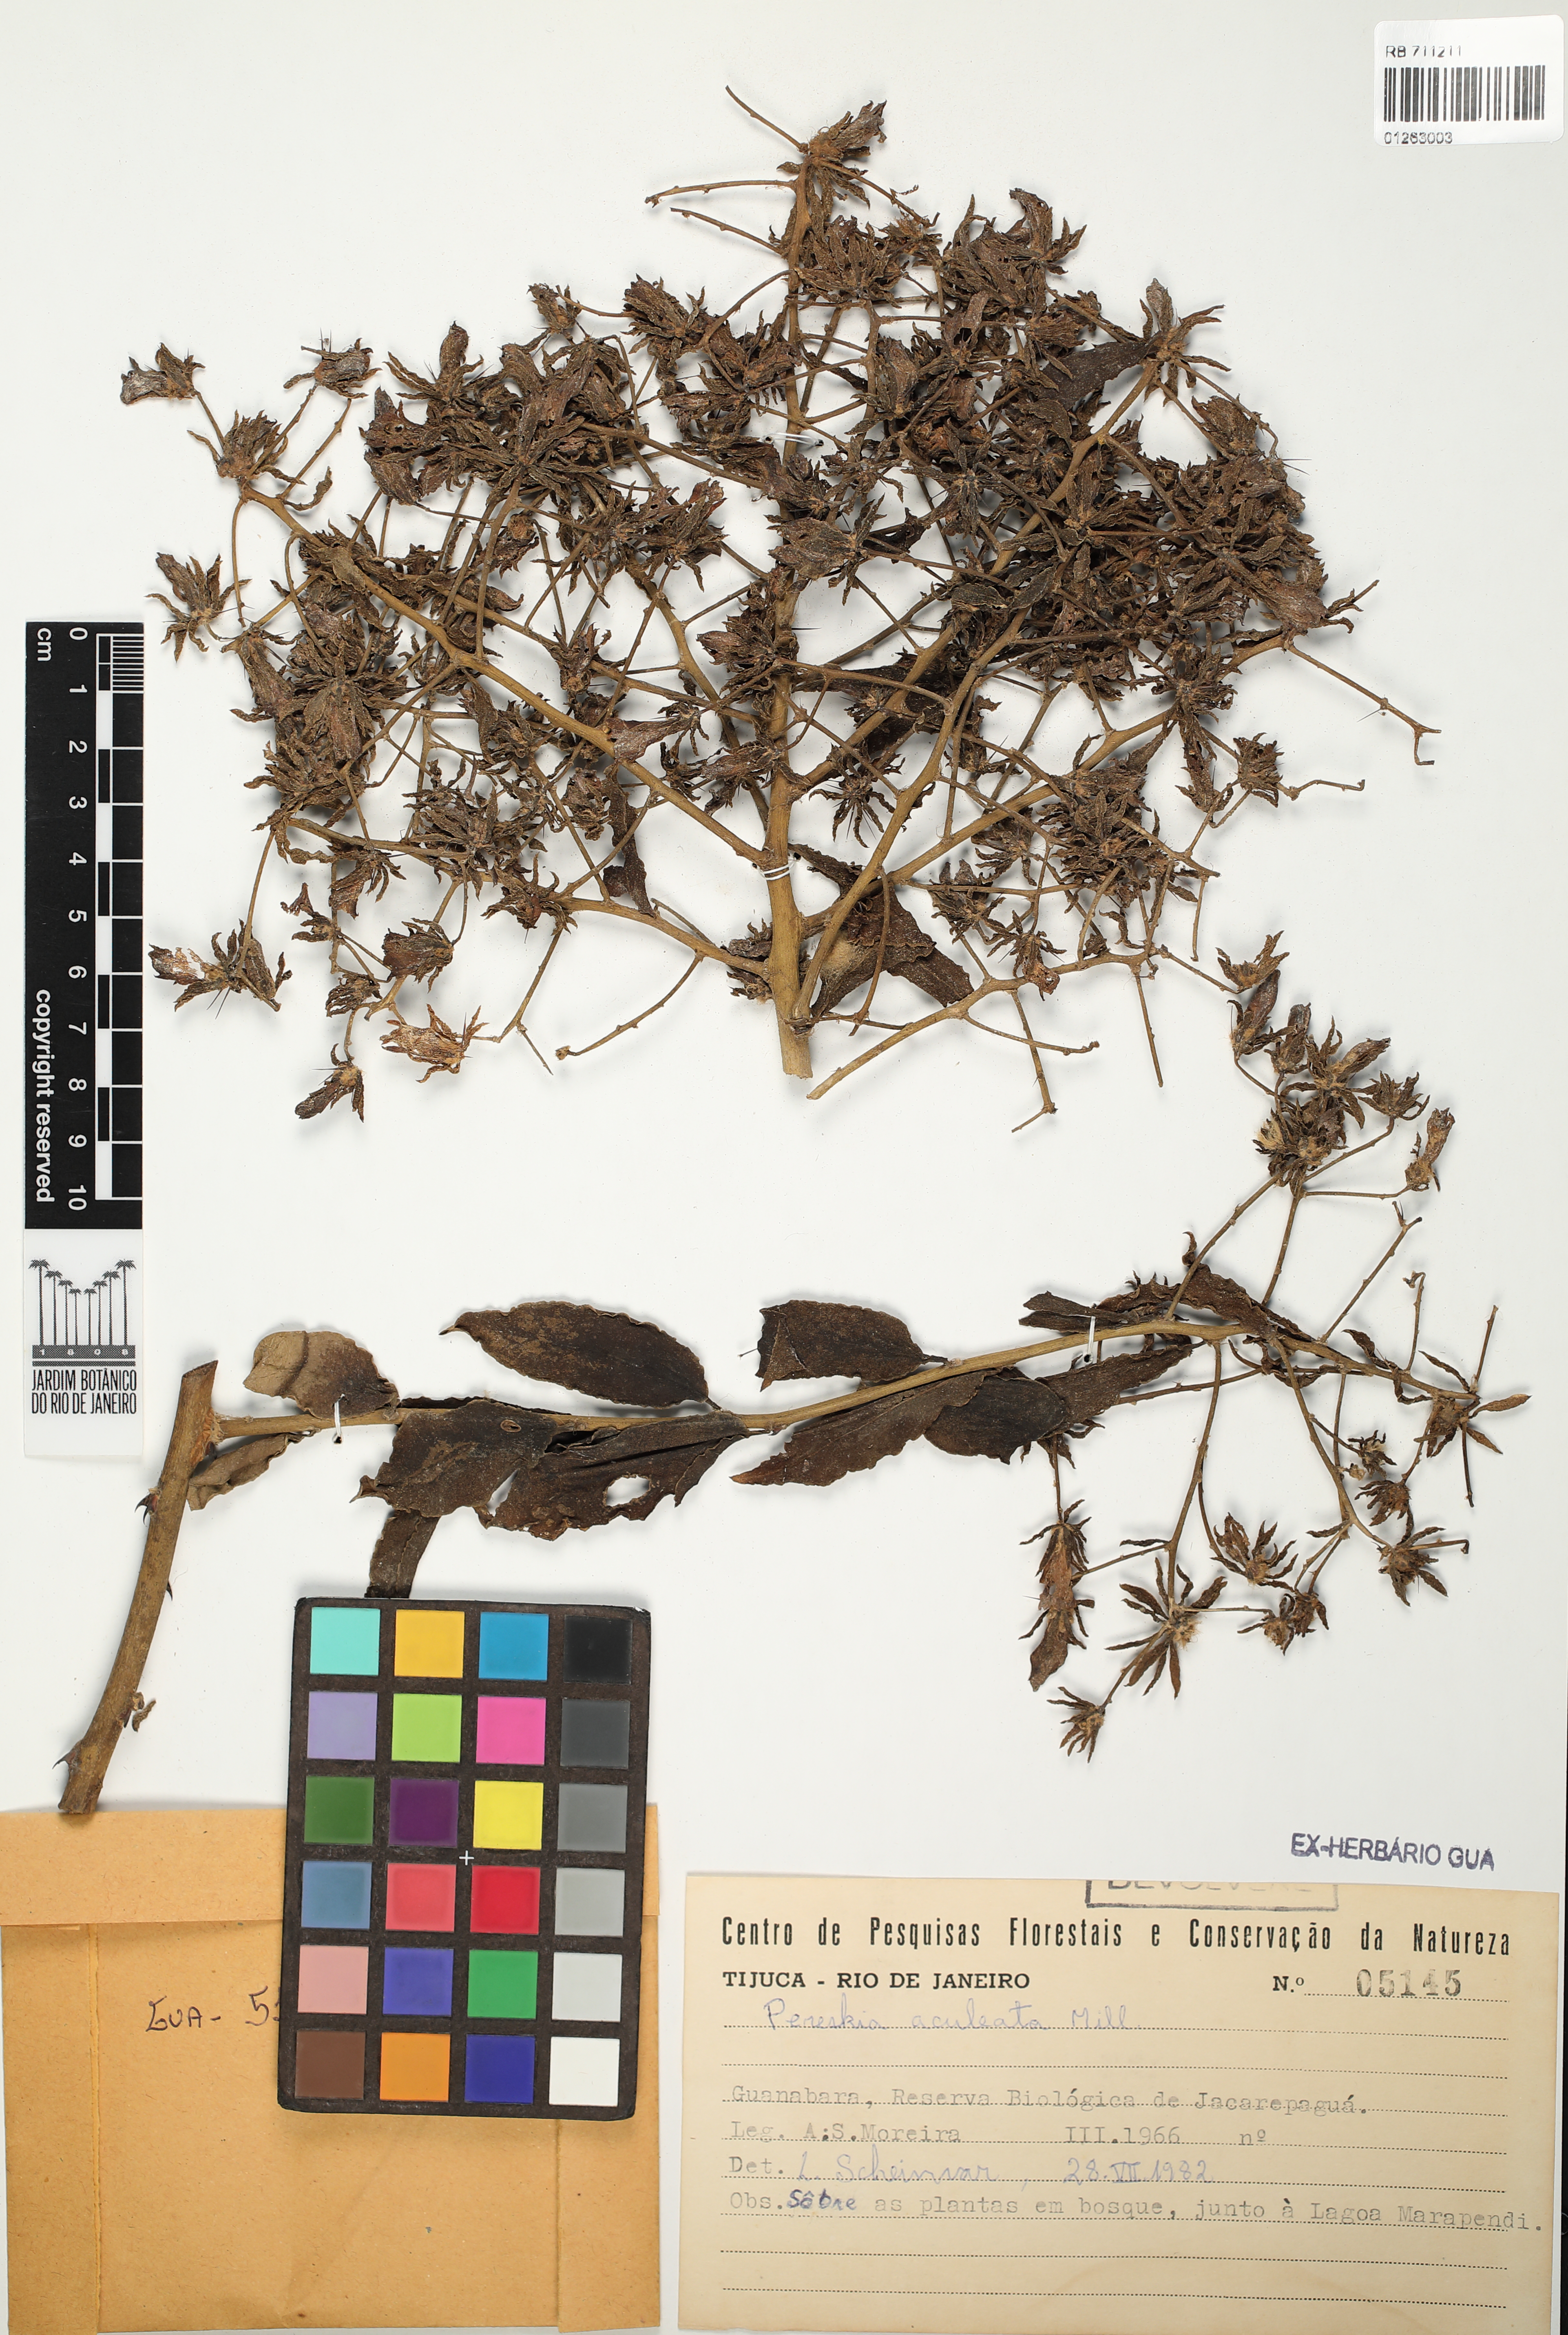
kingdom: Plantae
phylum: Tracheophyta
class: Magnoliopsida
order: Caryophyllales
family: Cactaceae
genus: Pereskia
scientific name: Pereskia aculeata
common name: Barbados gooseberry
